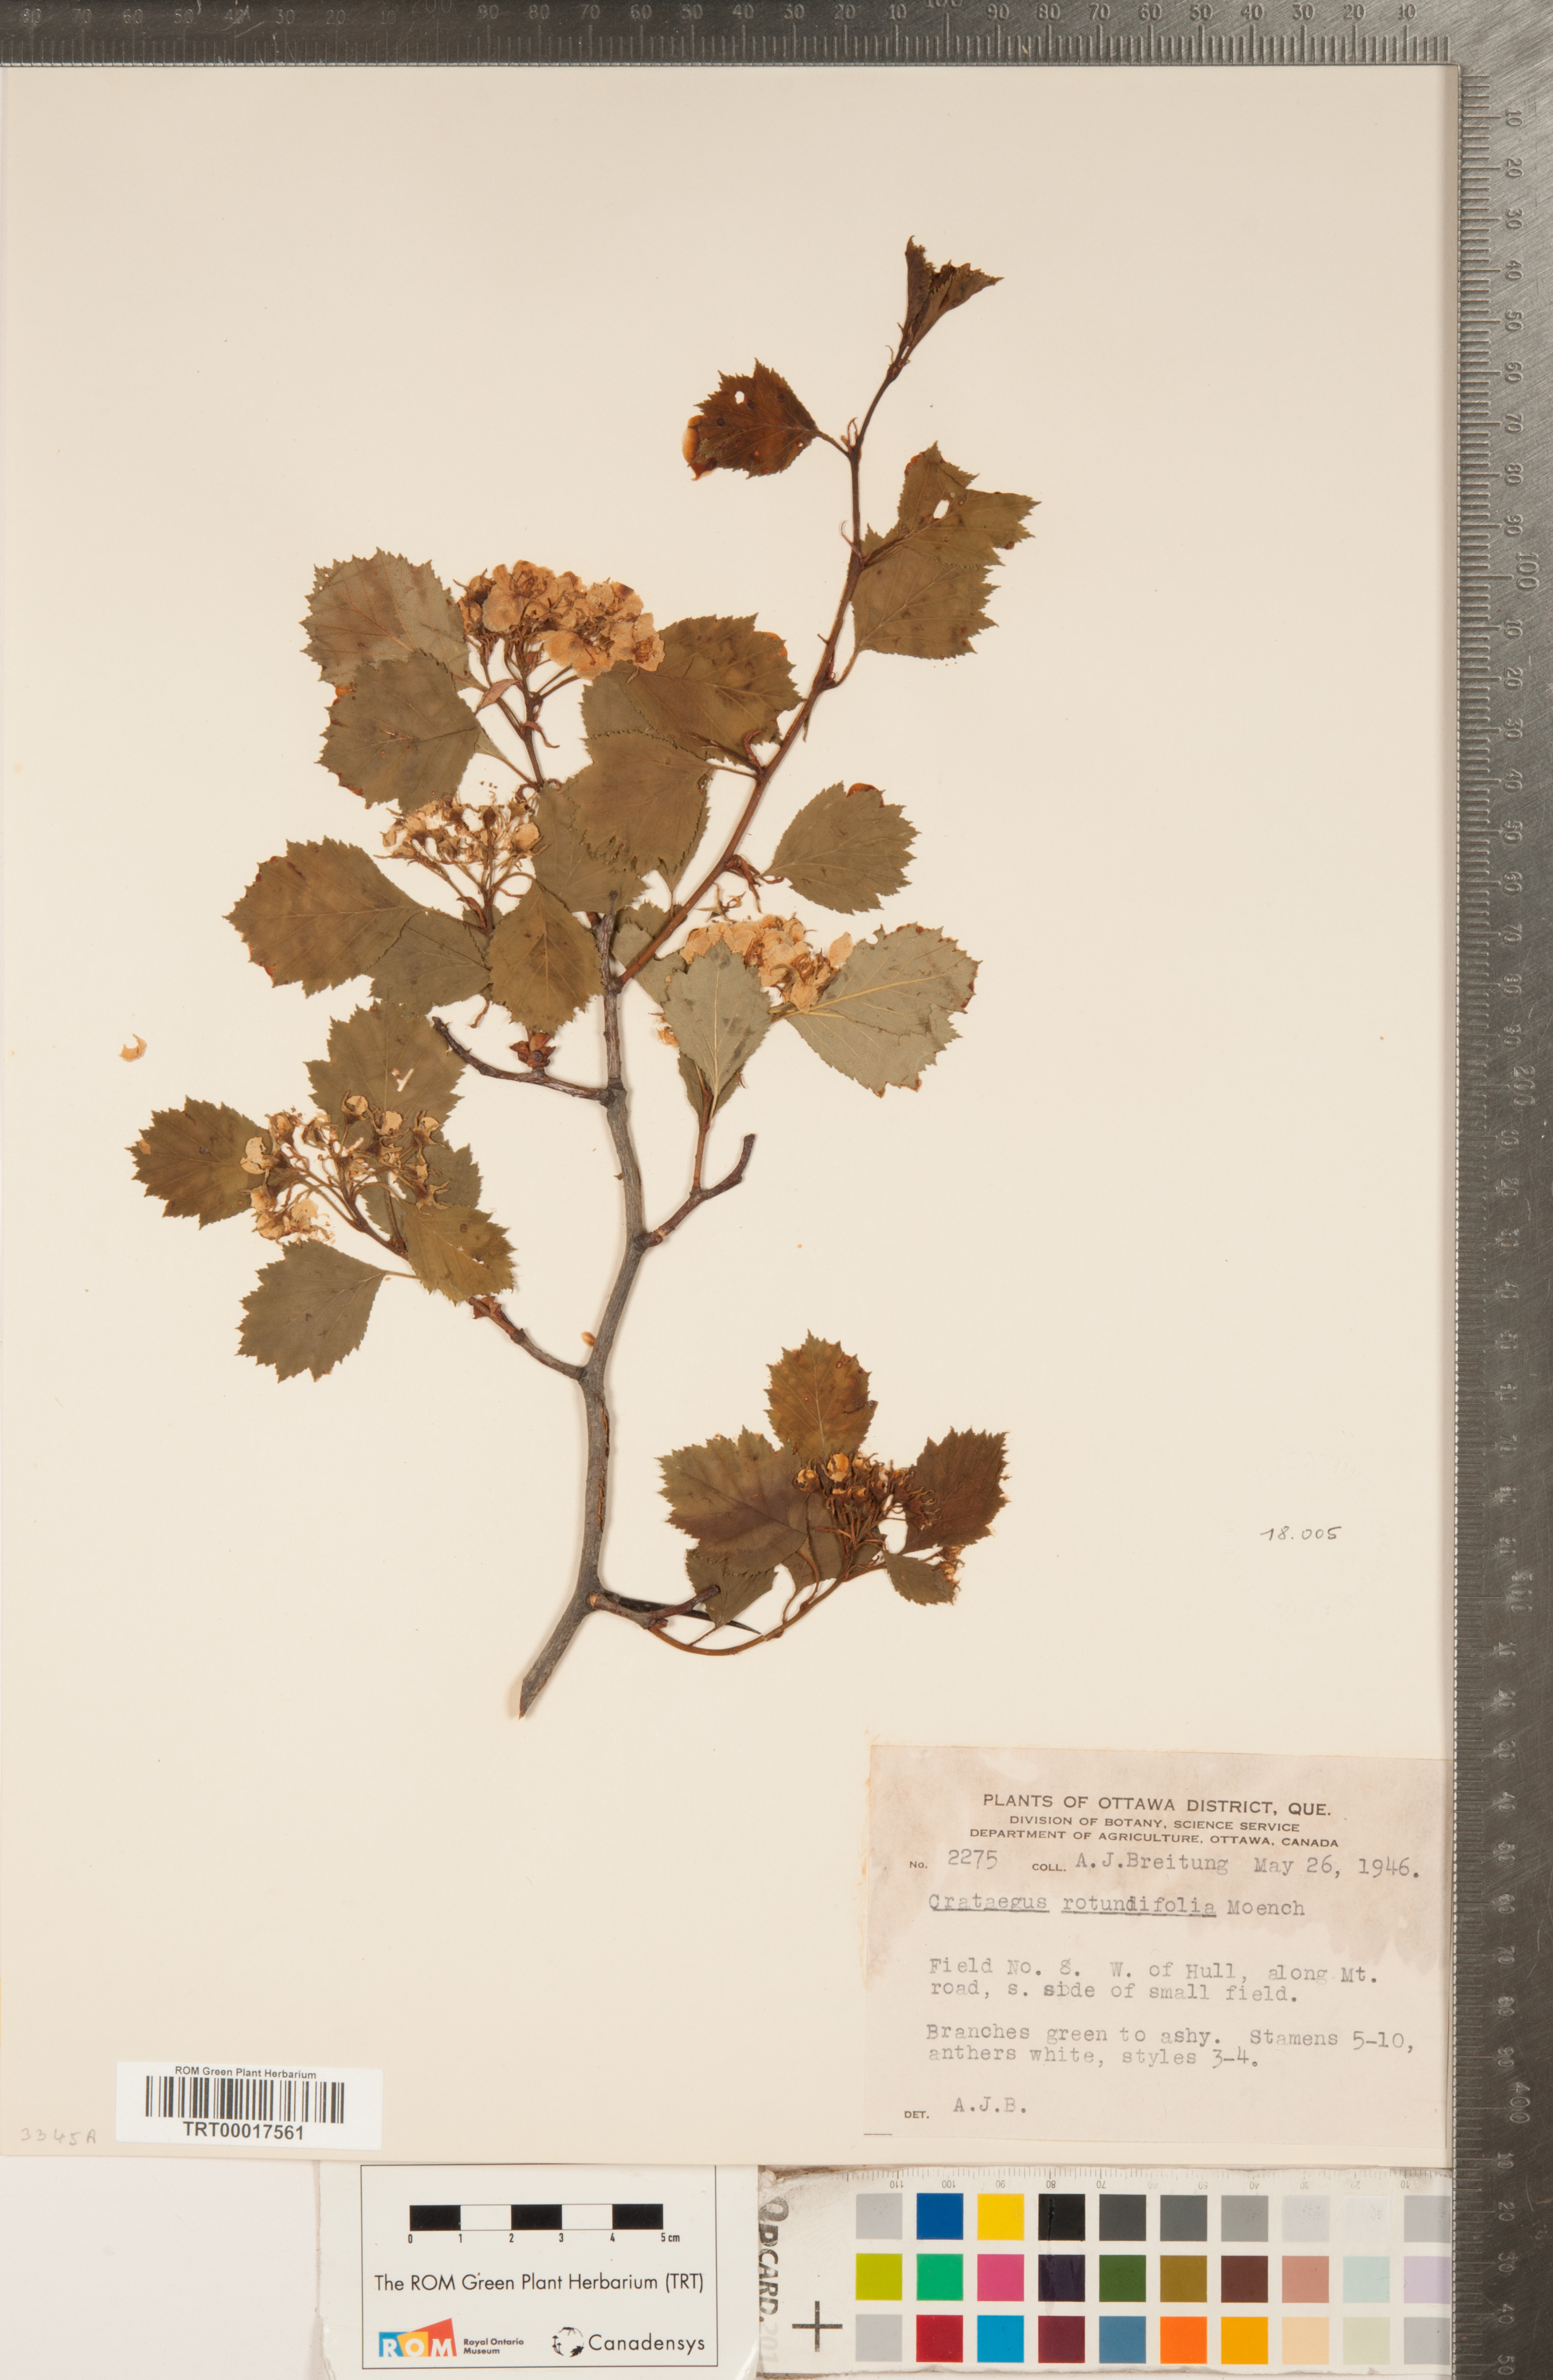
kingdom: Plantae
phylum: Tracheophyta
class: Magnoliopsida
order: Rosales
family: Rosaceae
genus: Crataegus
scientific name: Crataegus chrysocarpa
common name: Fire-berry hawthorn
